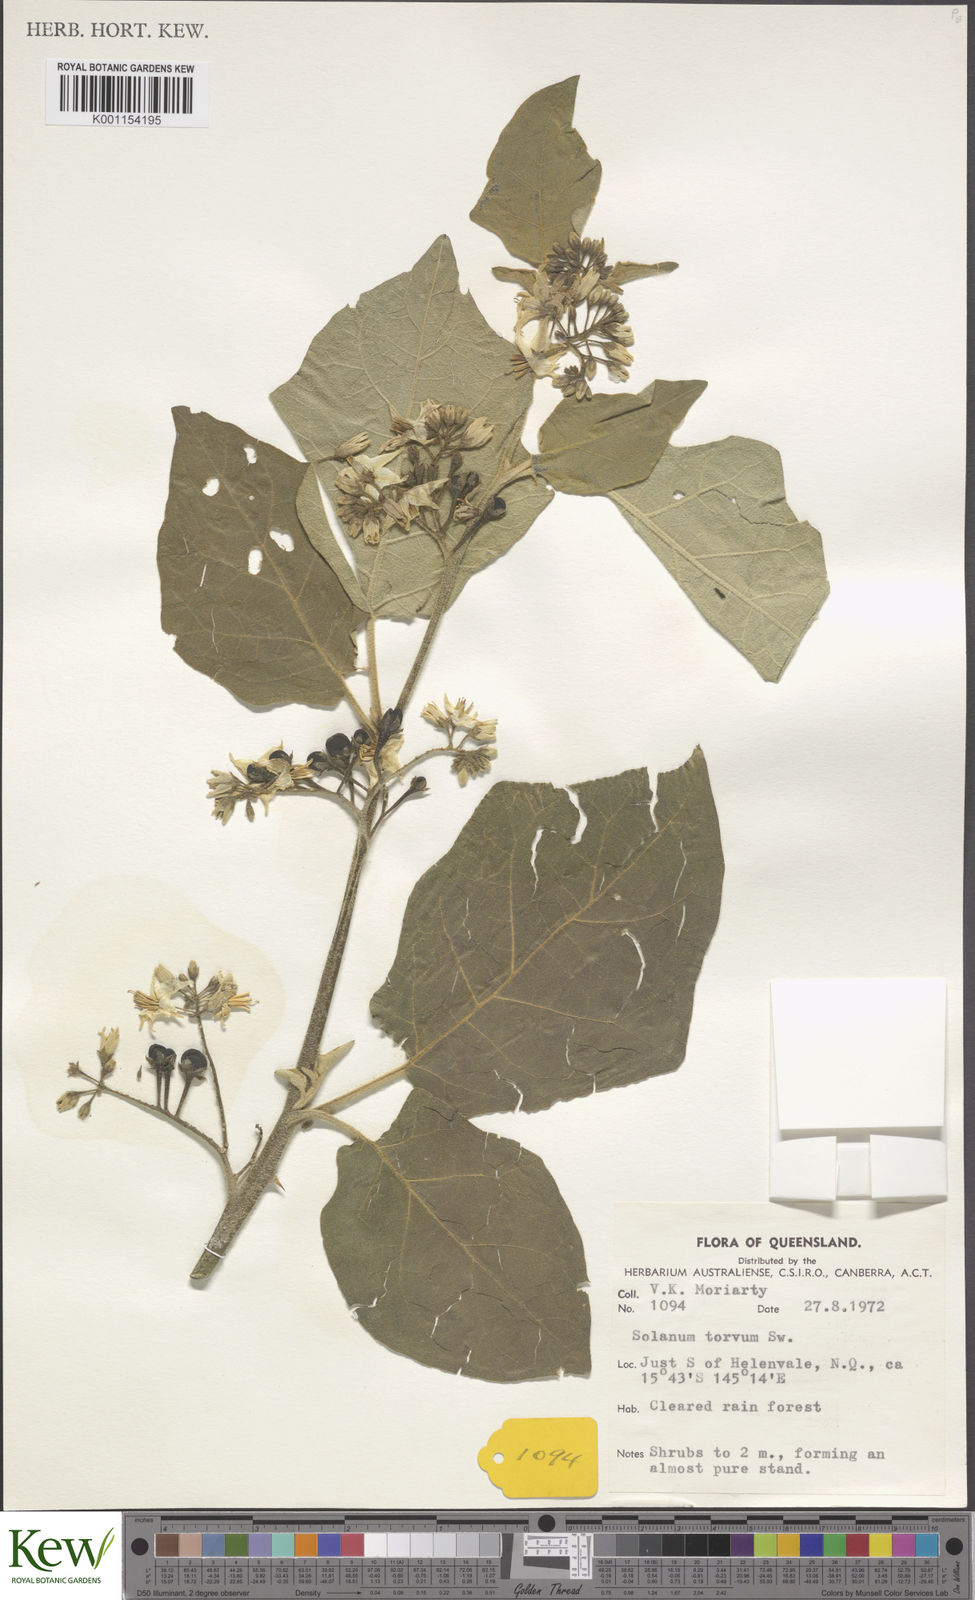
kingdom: Plantae
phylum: Tracheophyta
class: Magnoliopsida
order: Solanales
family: Solanaceae
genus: Solanum
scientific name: Solanum torvum
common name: Turkey berry
